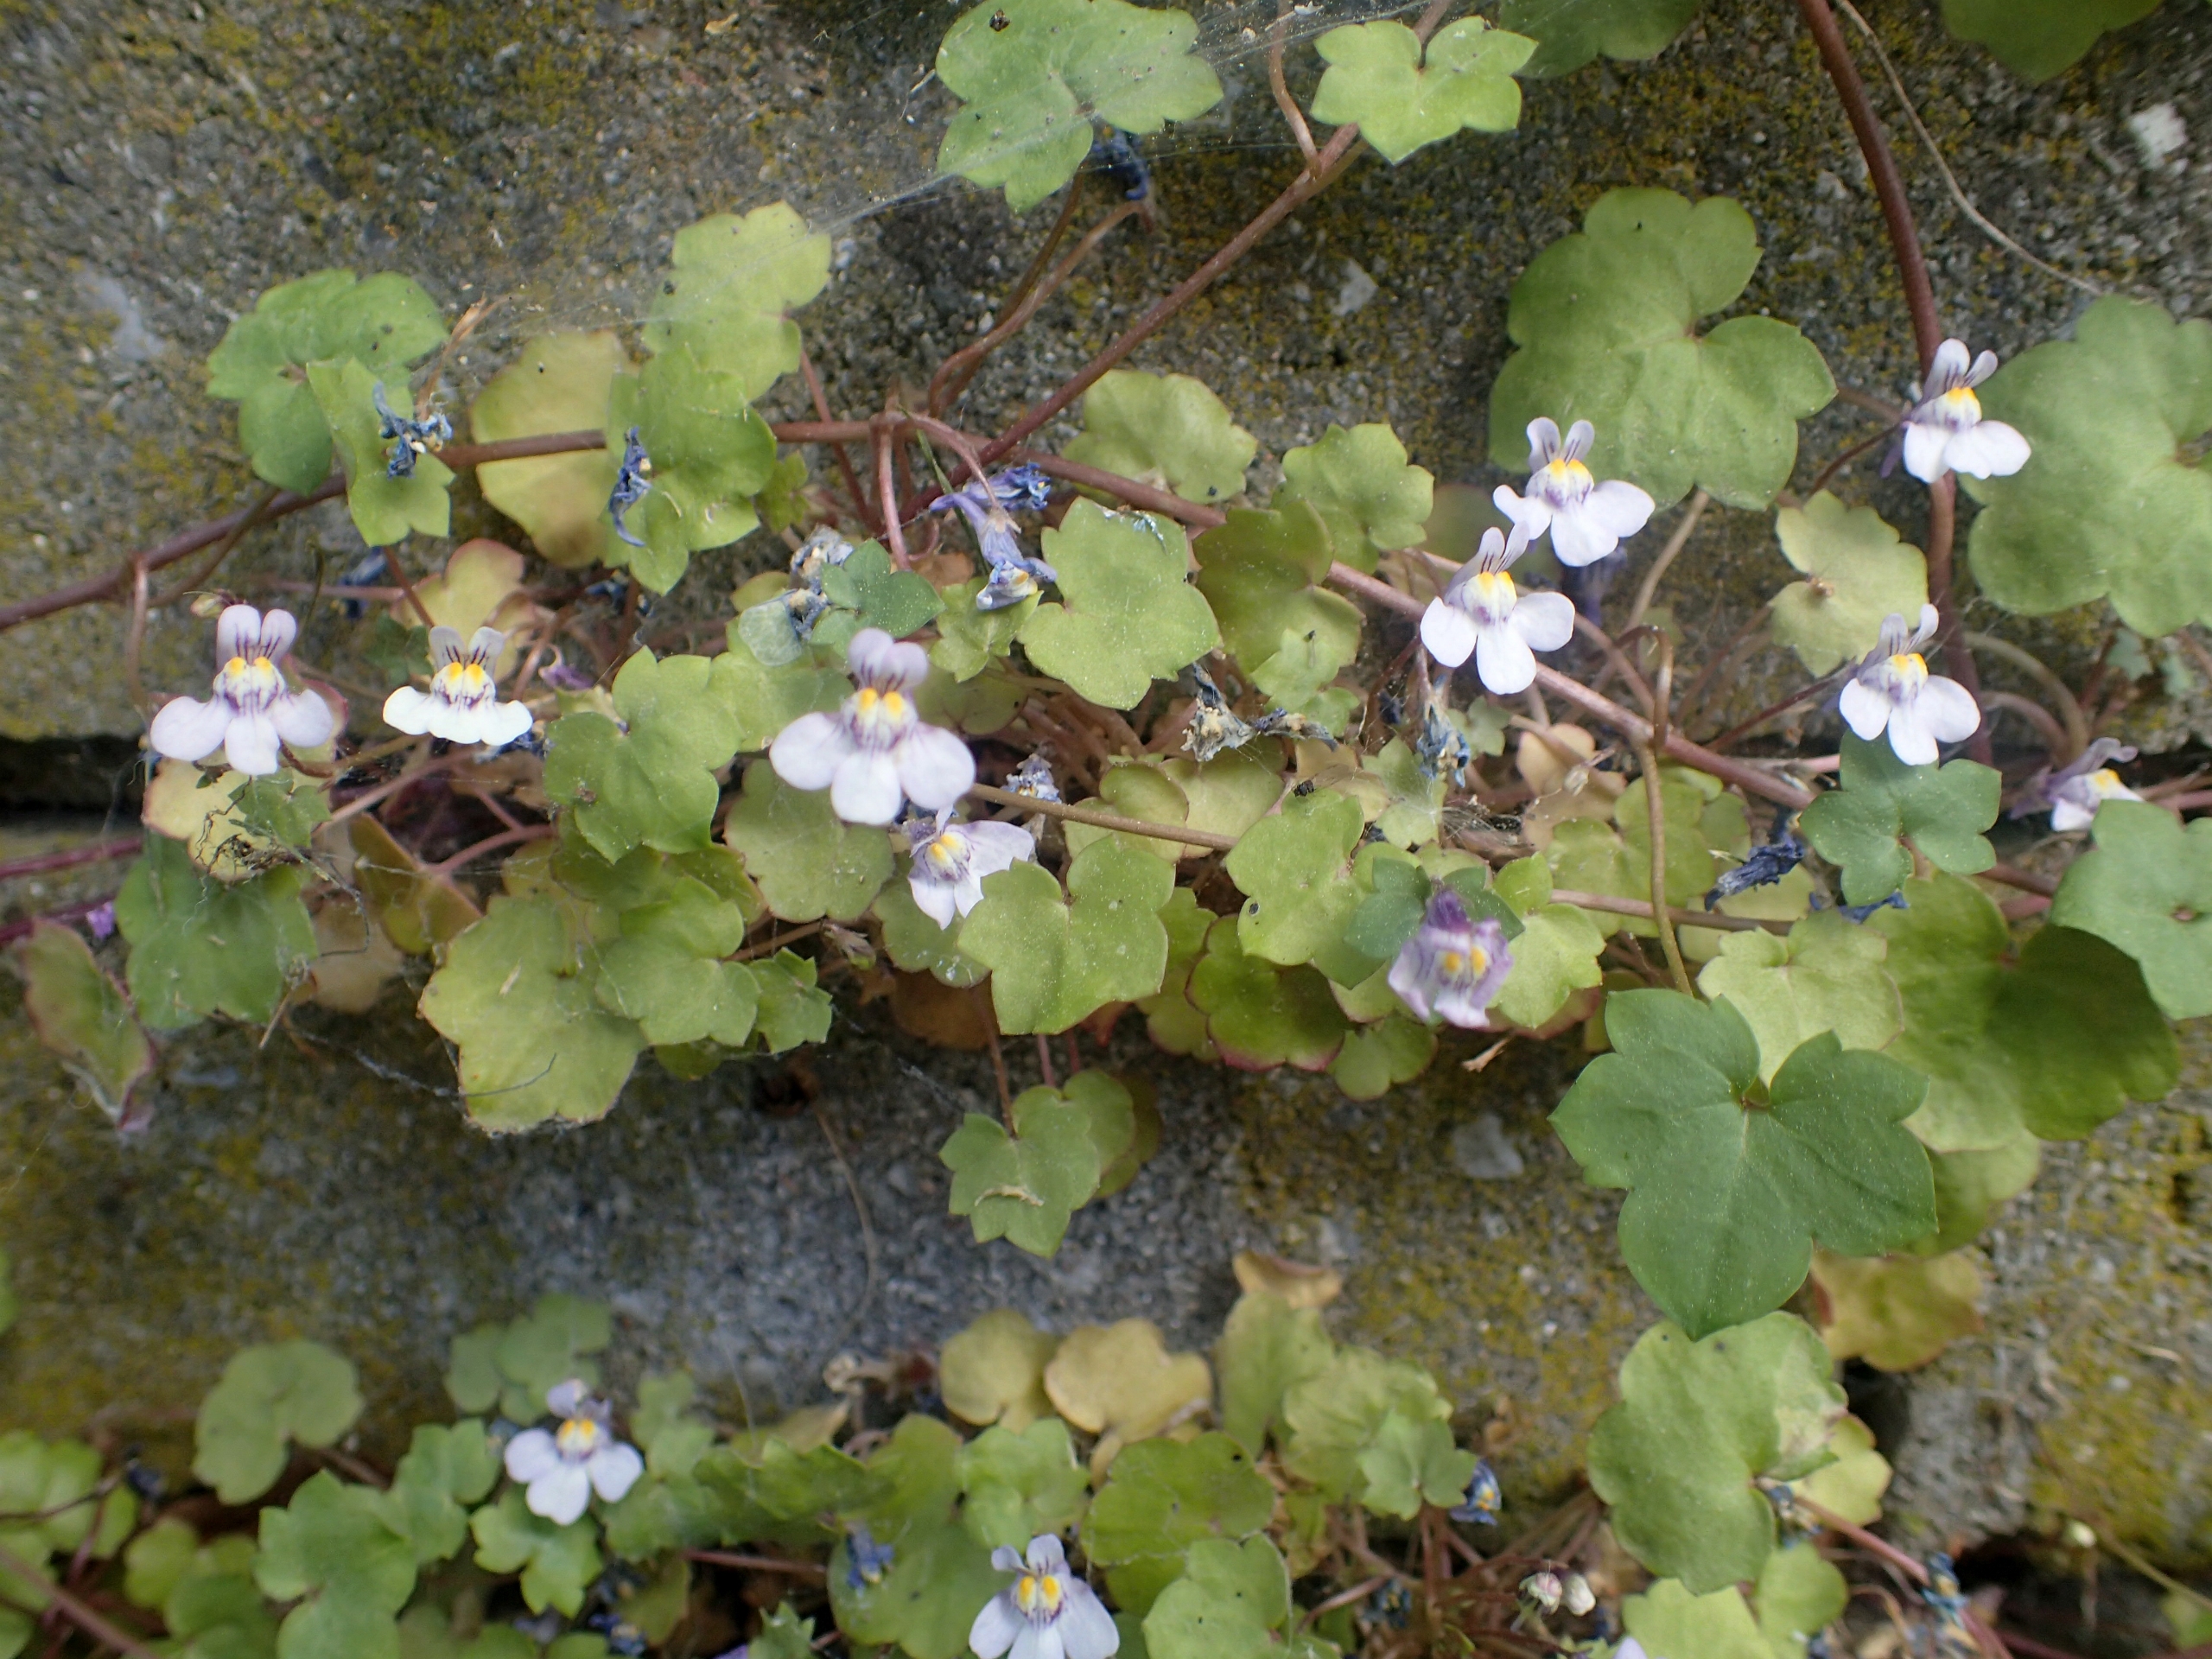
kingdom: Plantae
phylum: Tracheophyta
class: Magnoliopsida
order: Lamiales
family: Plantaginaceae
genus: Cymbalaria
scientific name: Cymbalaria muralis
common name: Vedbend-torskemund
